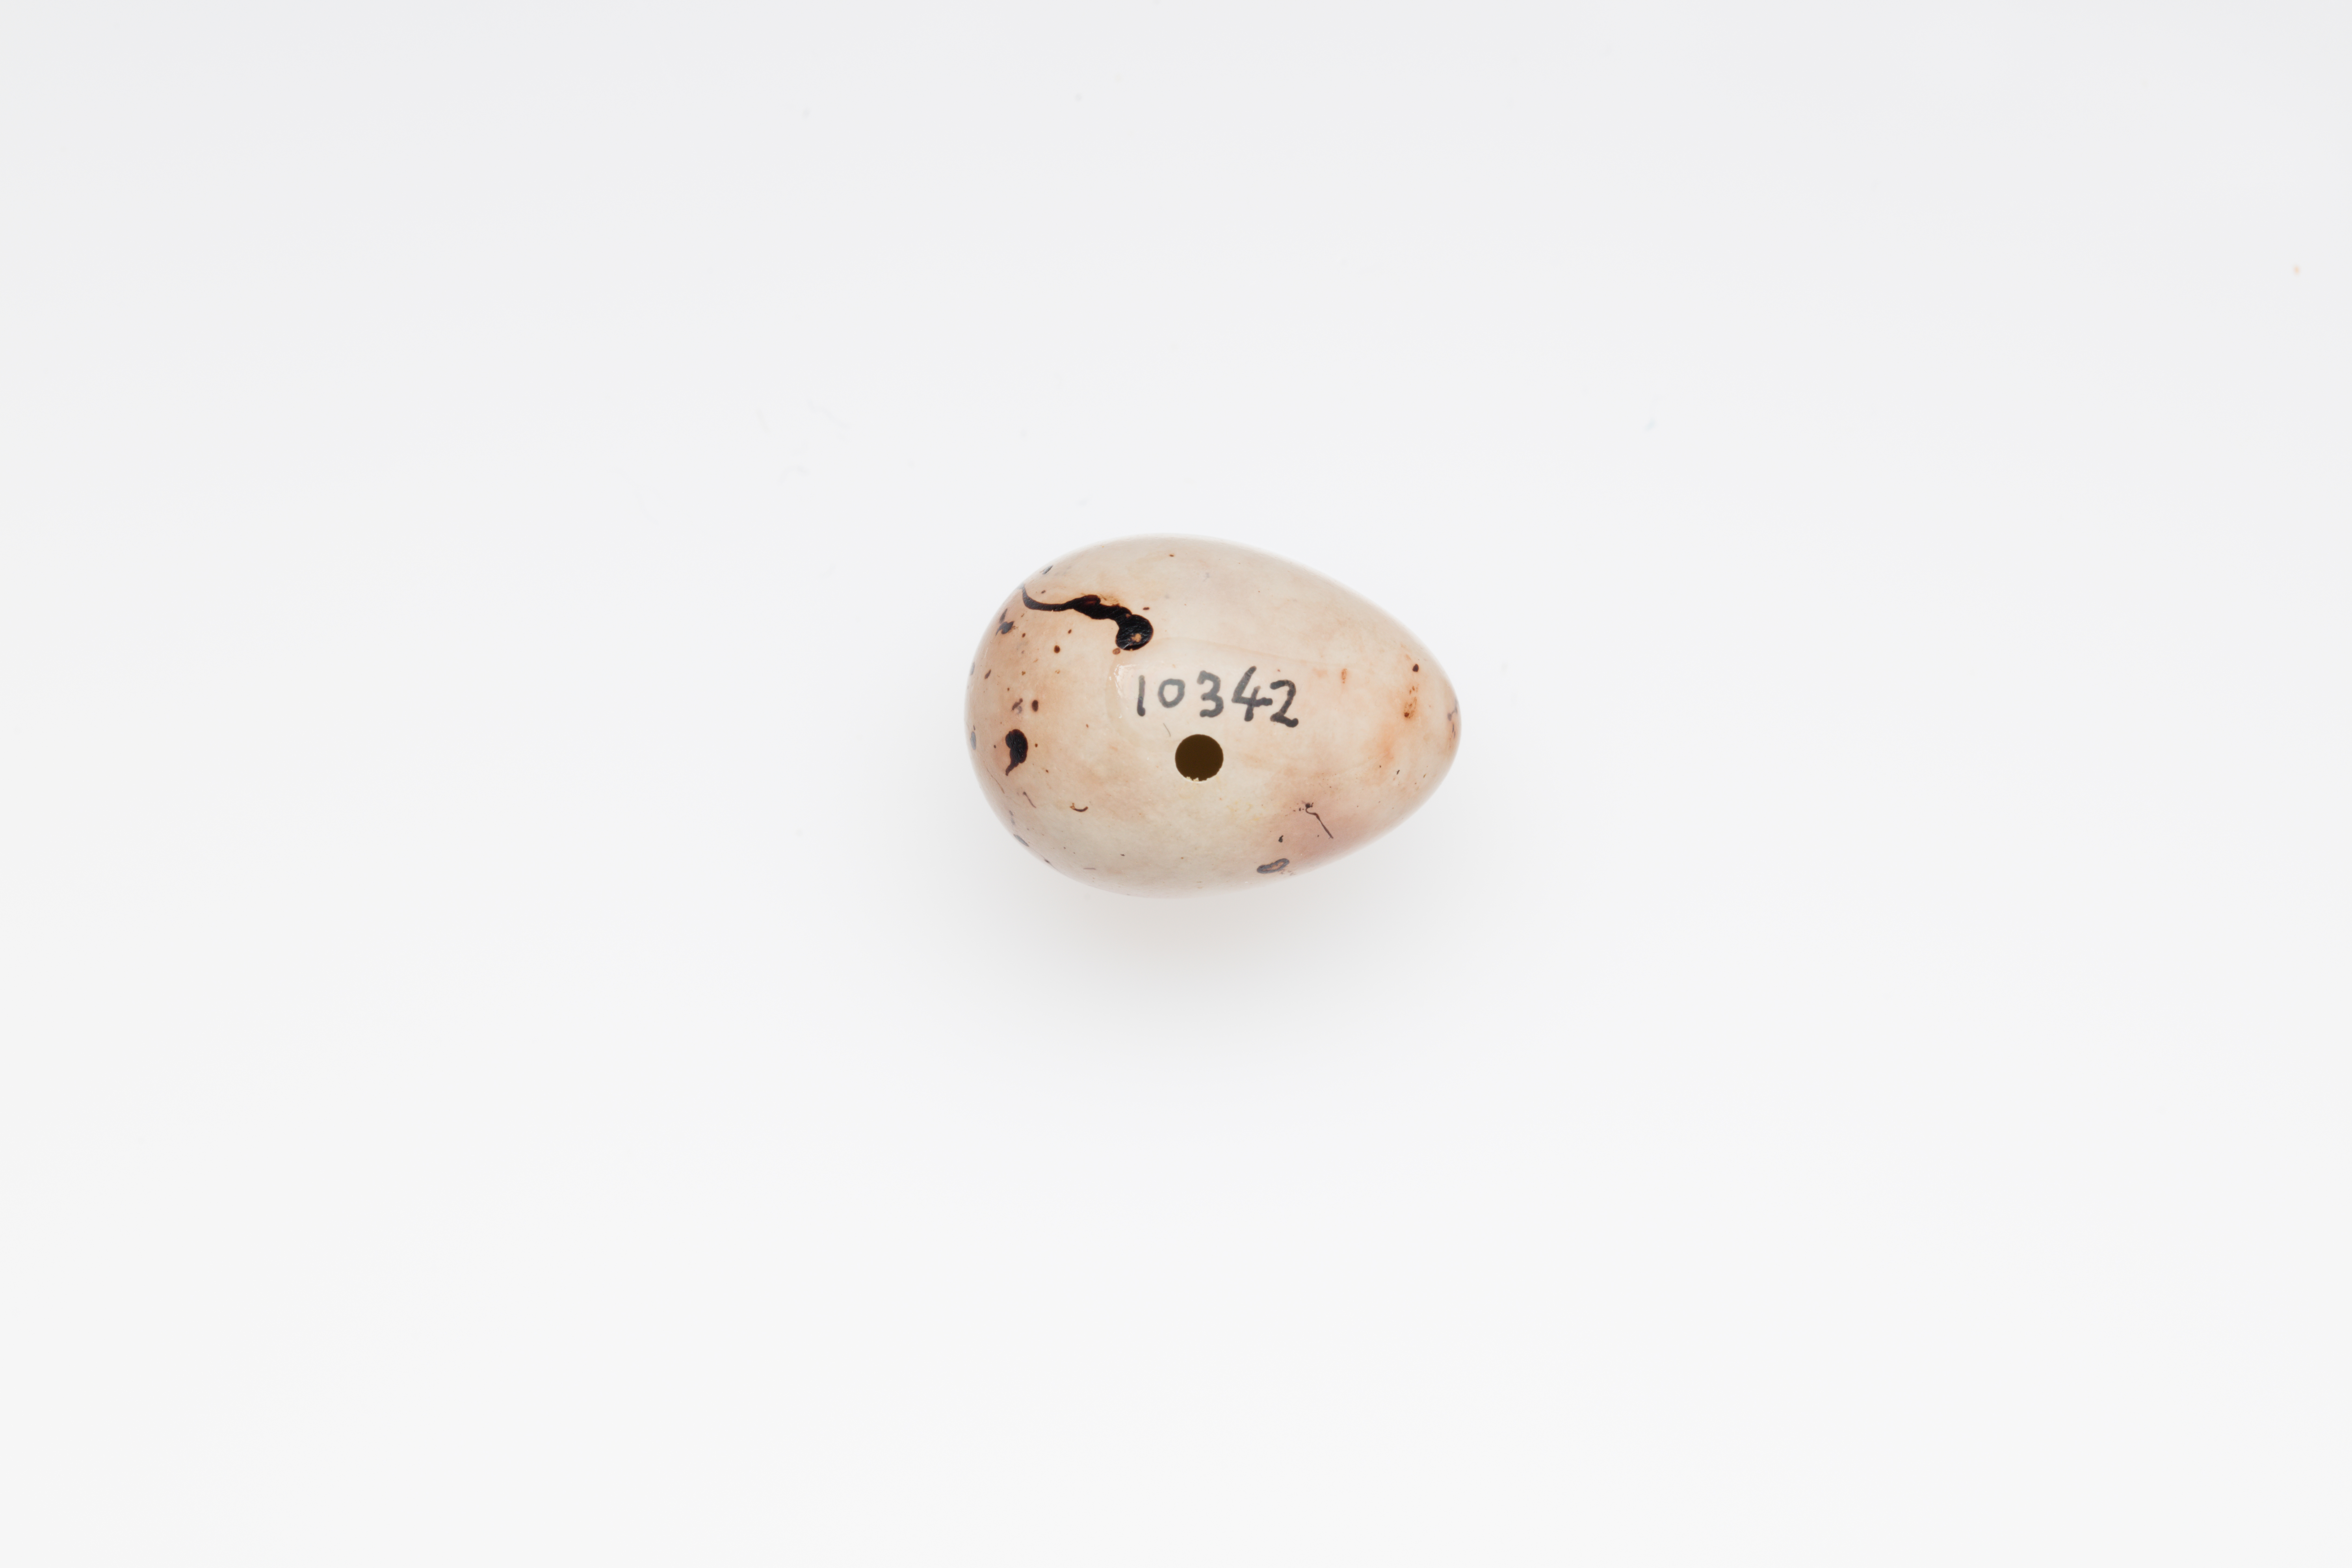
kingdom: Animalia
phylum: Chordata
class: Aves
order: Passeriformes
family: Fringillidae
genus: Fringilla
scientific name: Fringilla coelebs
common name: Common chaffinch
